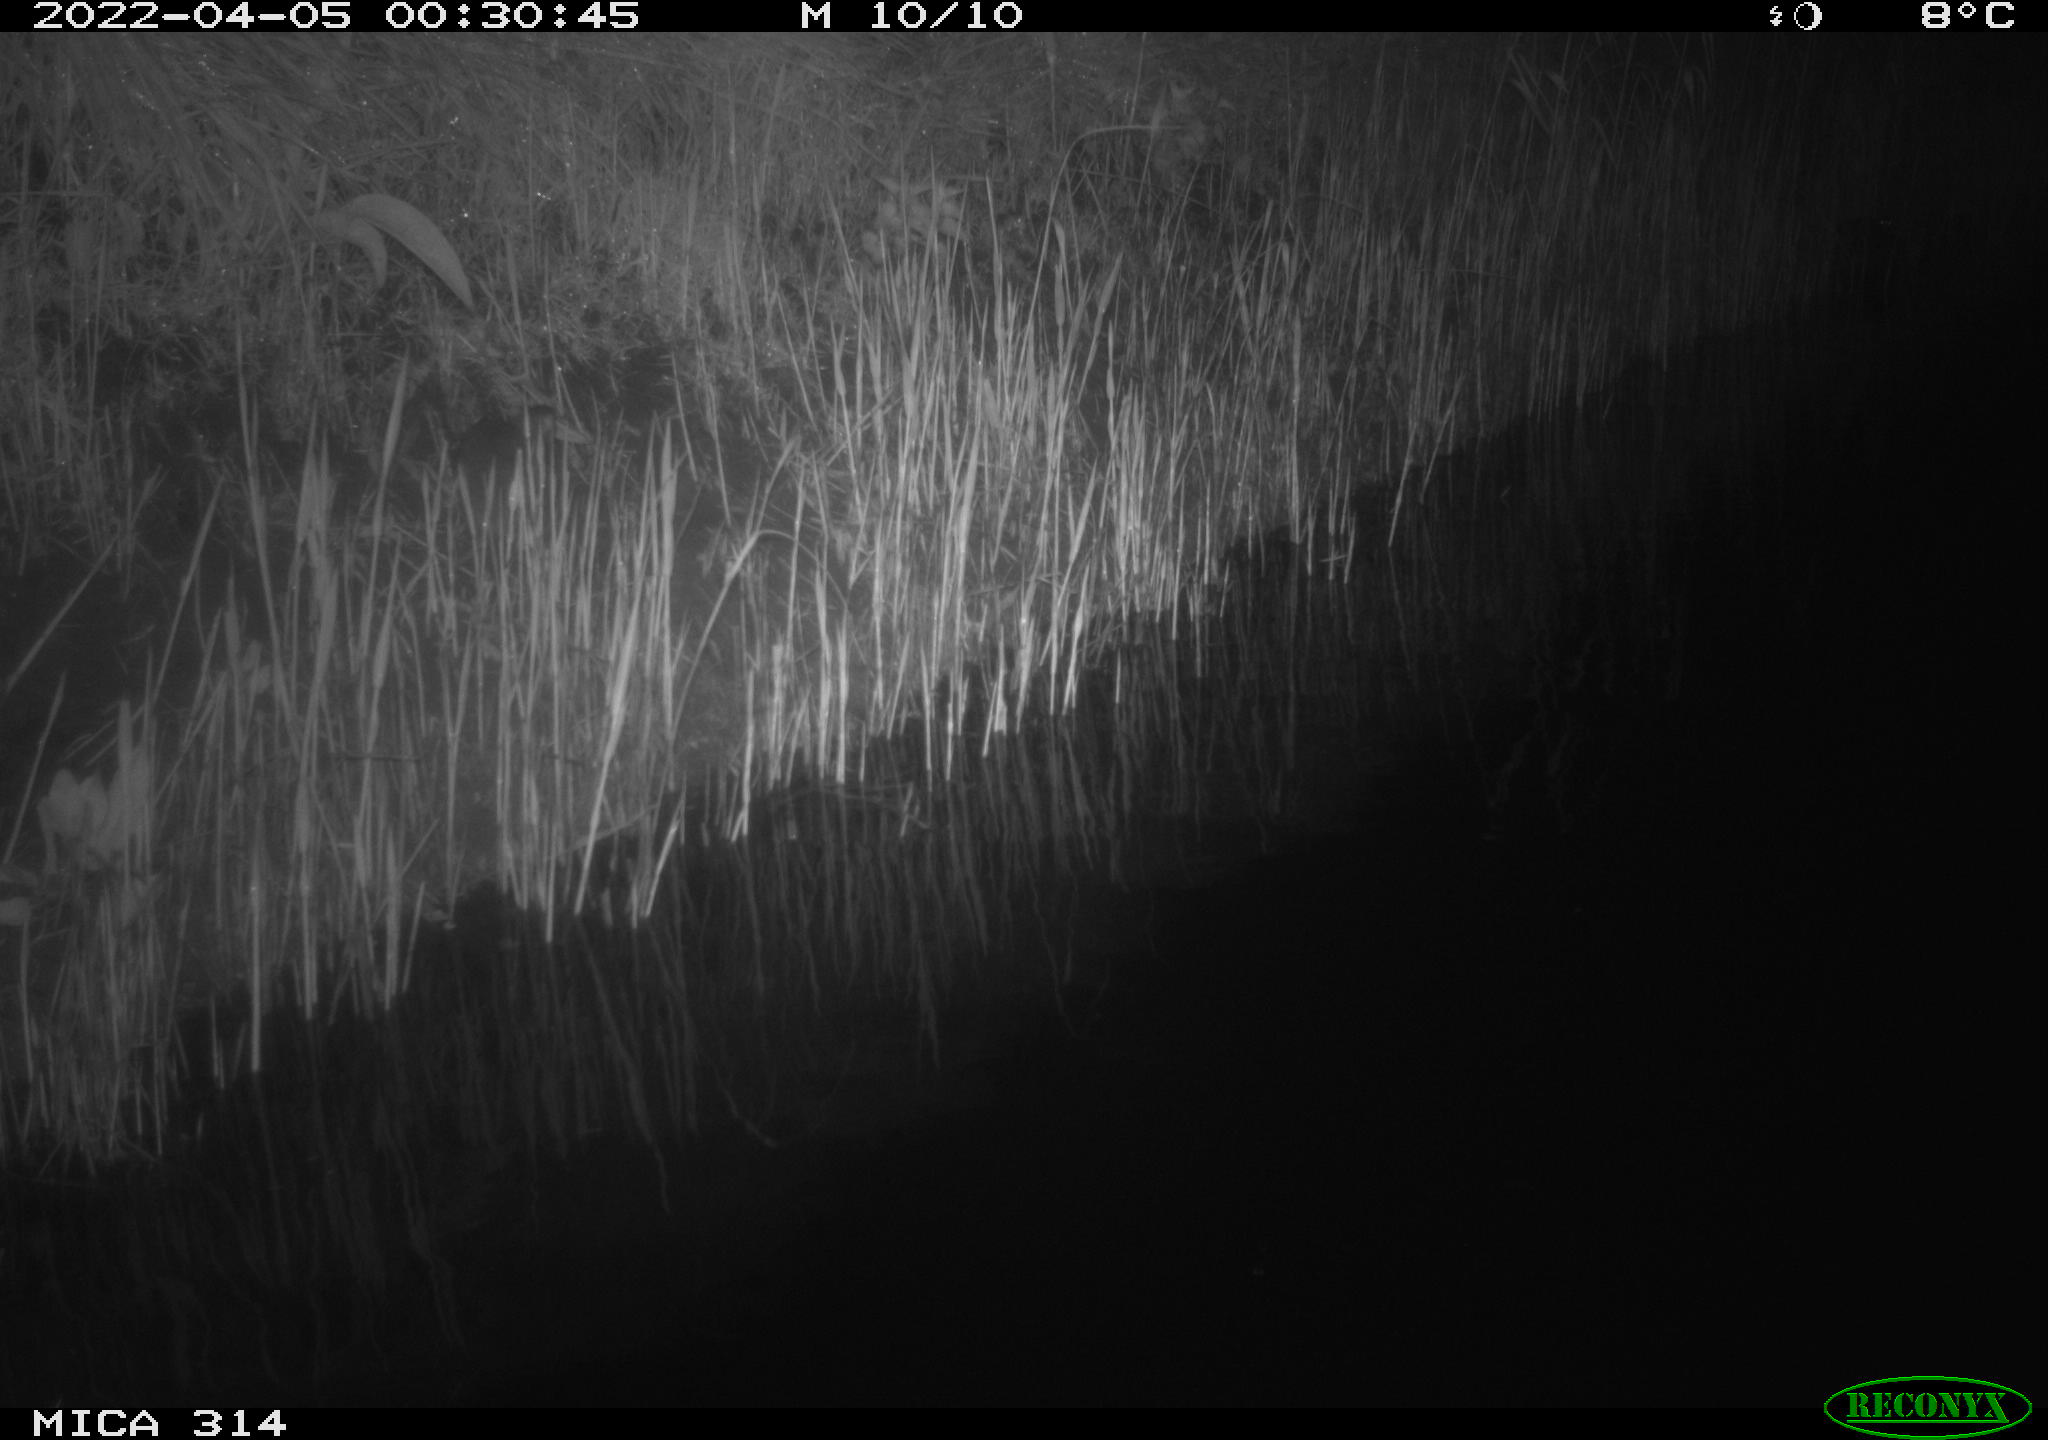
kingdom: Animalia
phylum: Chordata
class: Mammalia
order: Rodentia
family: Cricetidae
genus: Ondatra
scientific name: Ondatra zibethicus
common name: Muskrat
